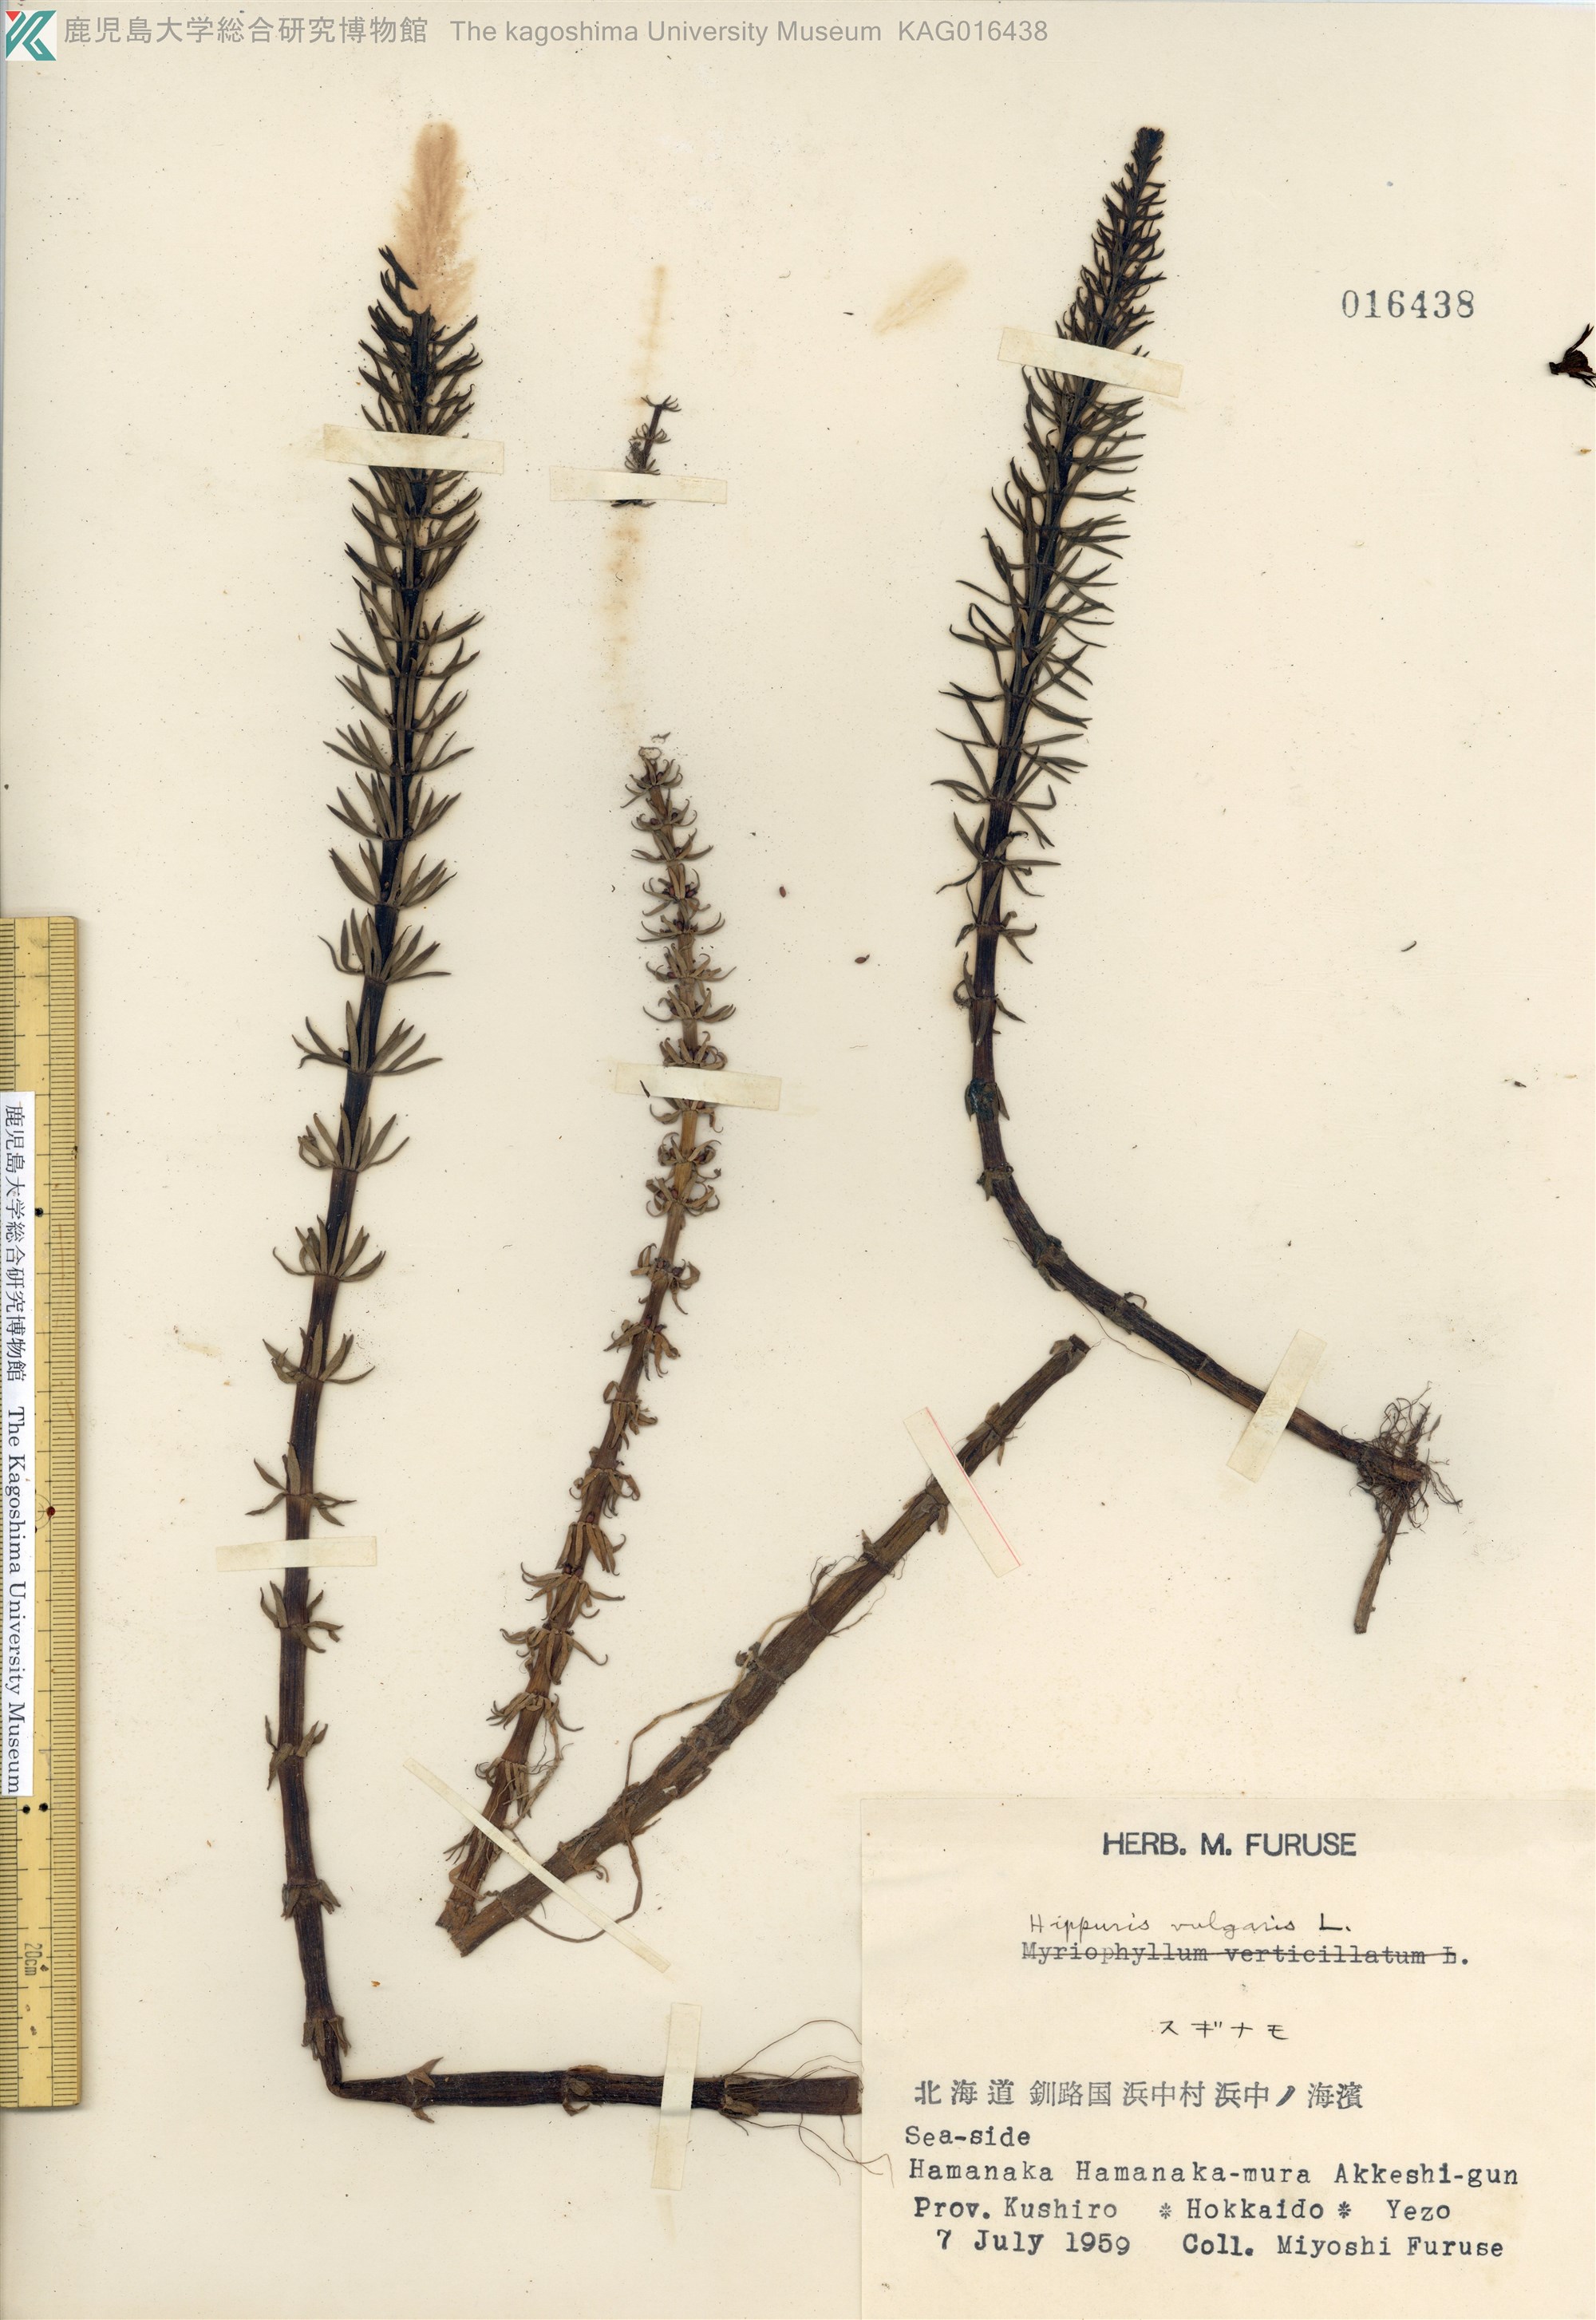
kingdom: Plantae
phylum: Tracheophyta
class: Magnoliopsida
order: Lamiales
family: Plantaginaceae
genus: Hippuris
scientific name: Hippuris vulgaris
